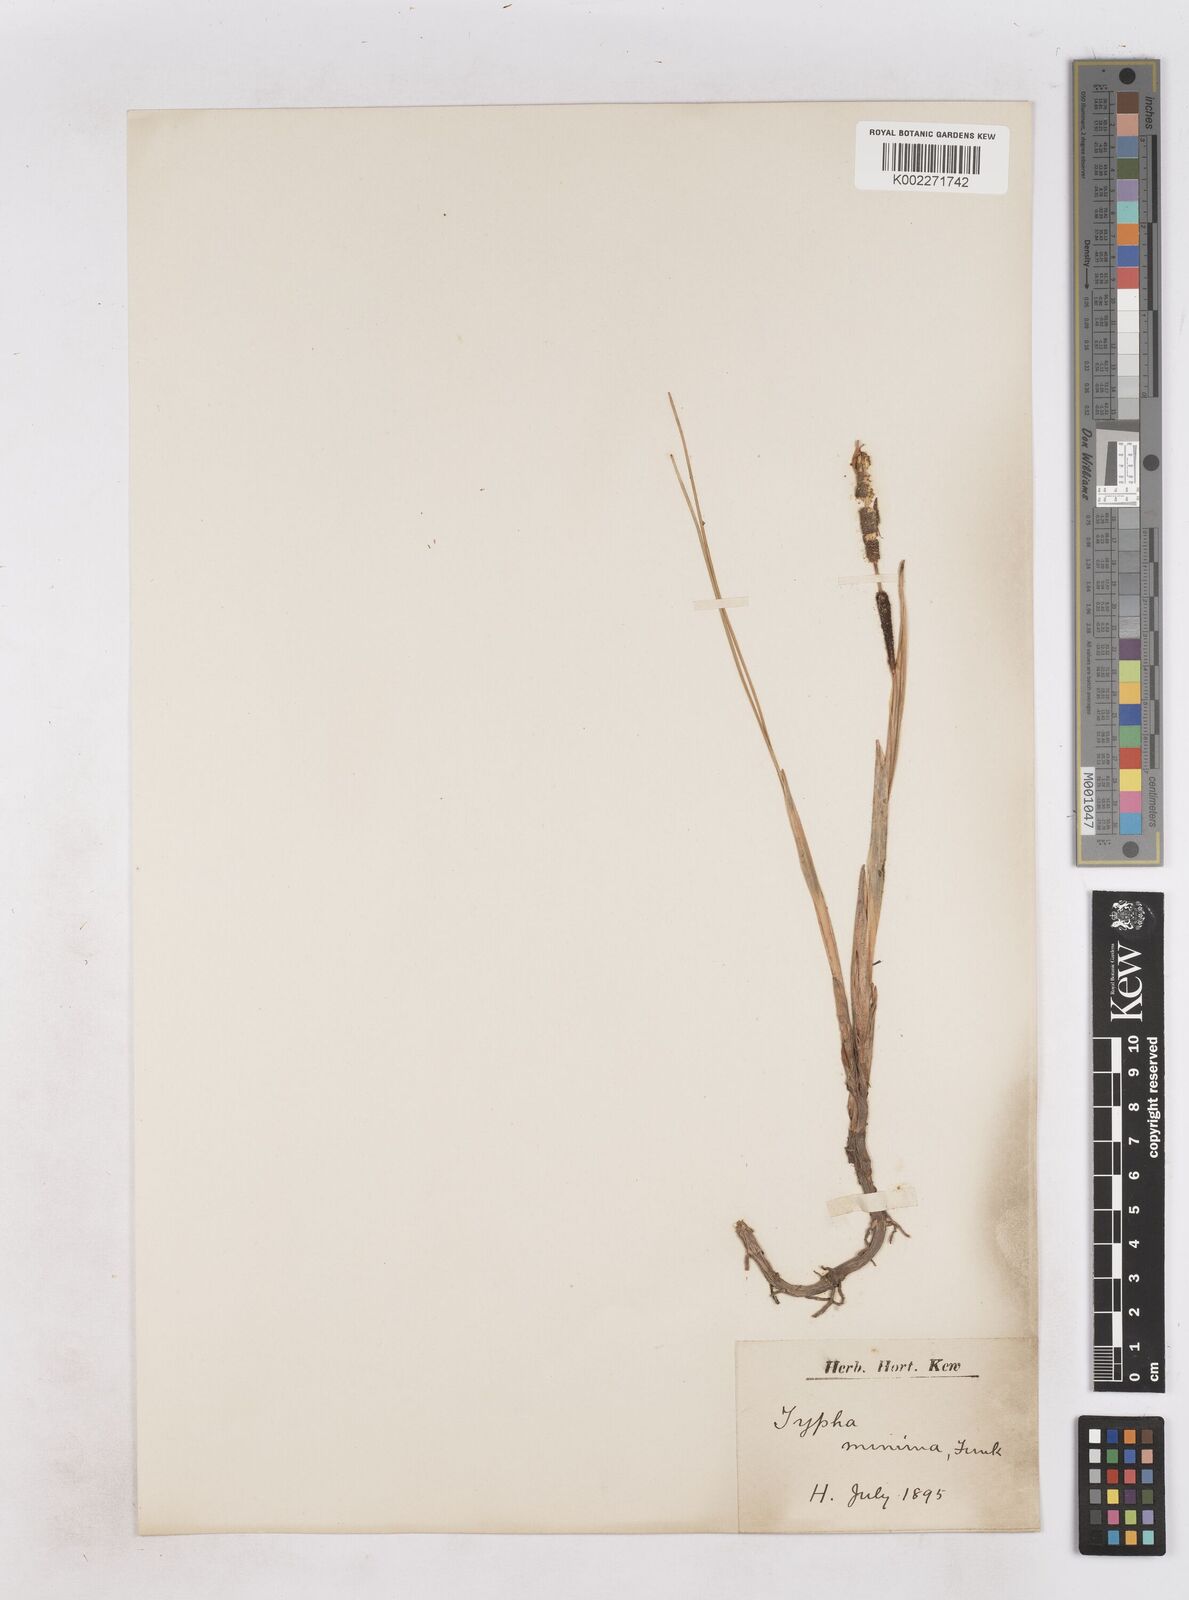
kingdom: Plantae
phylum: Tracheophyta
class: Liliopsida
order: Poales
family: Typhaceae
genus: Typha
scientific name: Typha minima
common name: Dwarf bulrush
